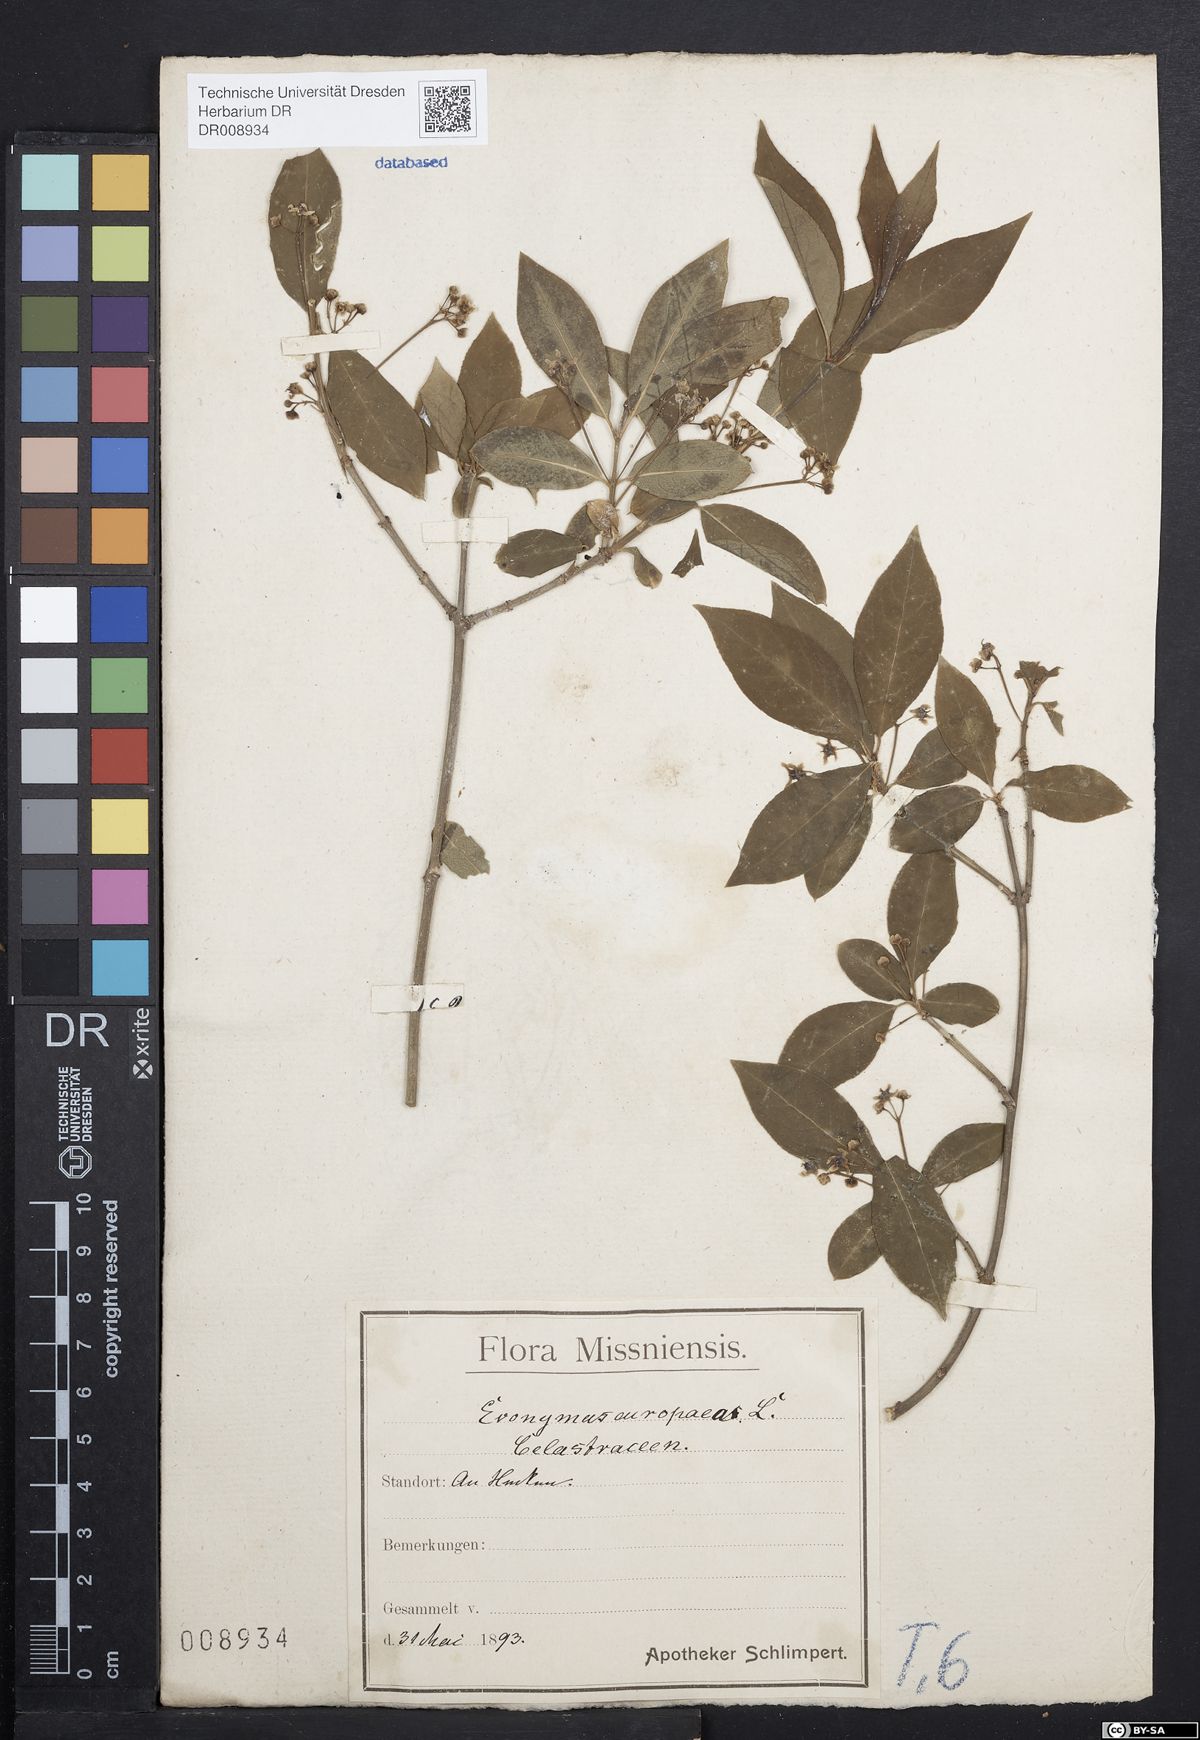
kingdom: Plantae
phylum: Tracheophyta
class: Magnoliopsida
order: Celastrales
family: Celastraceae
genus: Euonymus
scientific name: Euonymus europaeus
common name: Spindle
